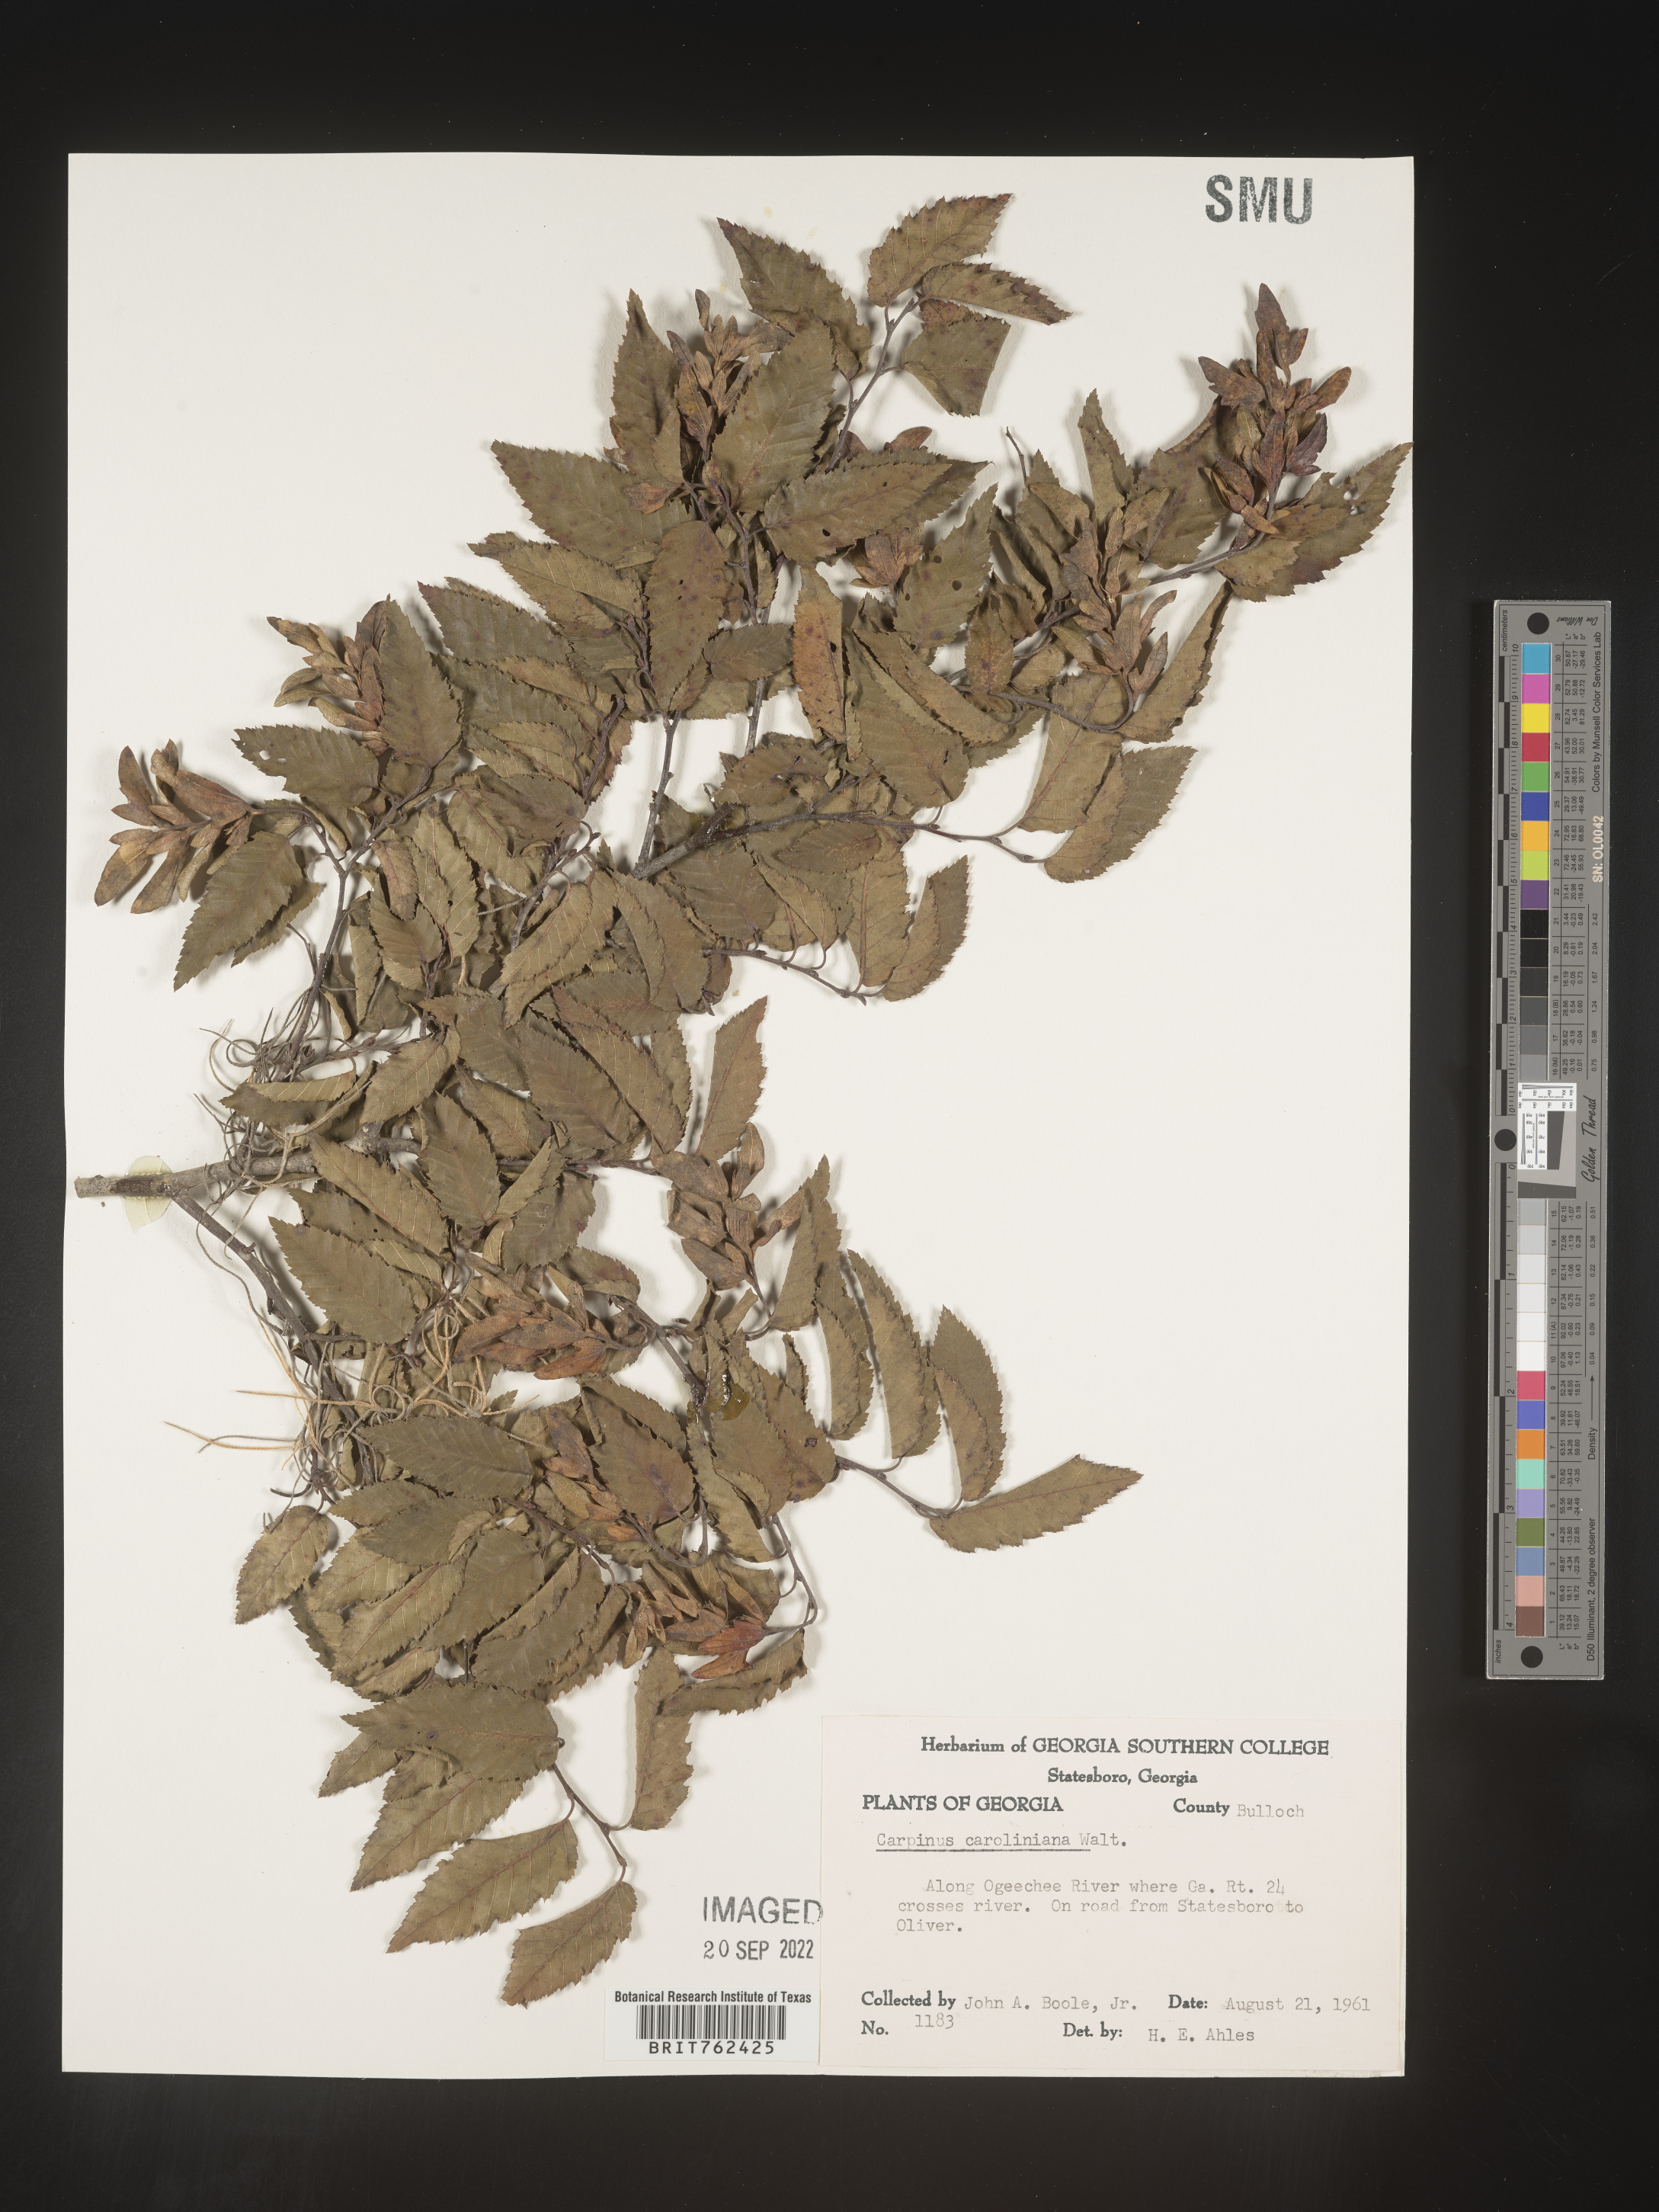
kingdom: Plantae
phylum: Tracheophyta
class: Magnoliopsida
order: Fagales
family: Betulaceae
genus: Carpinus
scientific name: Carpinus caroliniana
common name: American hornbeam
